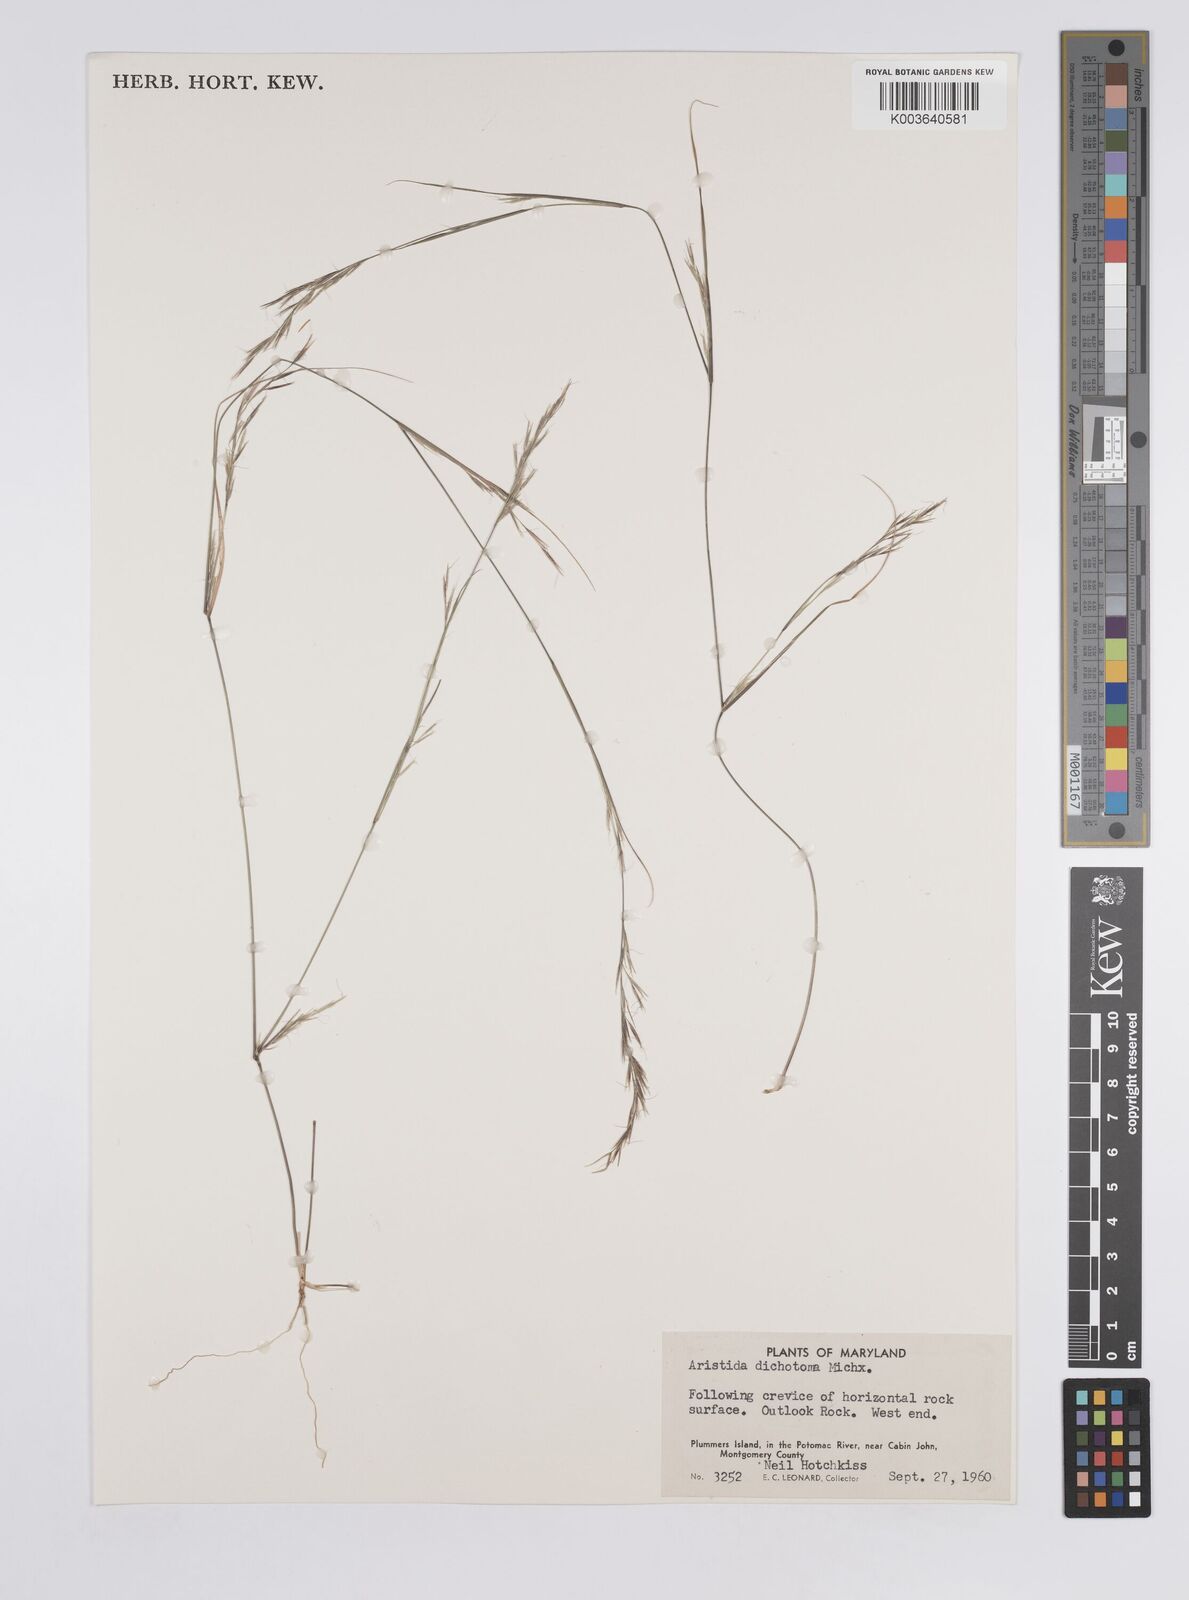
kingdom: Plantae
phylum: Tracheophyta
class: Liliopsida
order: Poales
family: Poaceae
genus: Aristida
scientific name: Aristida dichotoma
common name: Churchmouse three-awn
